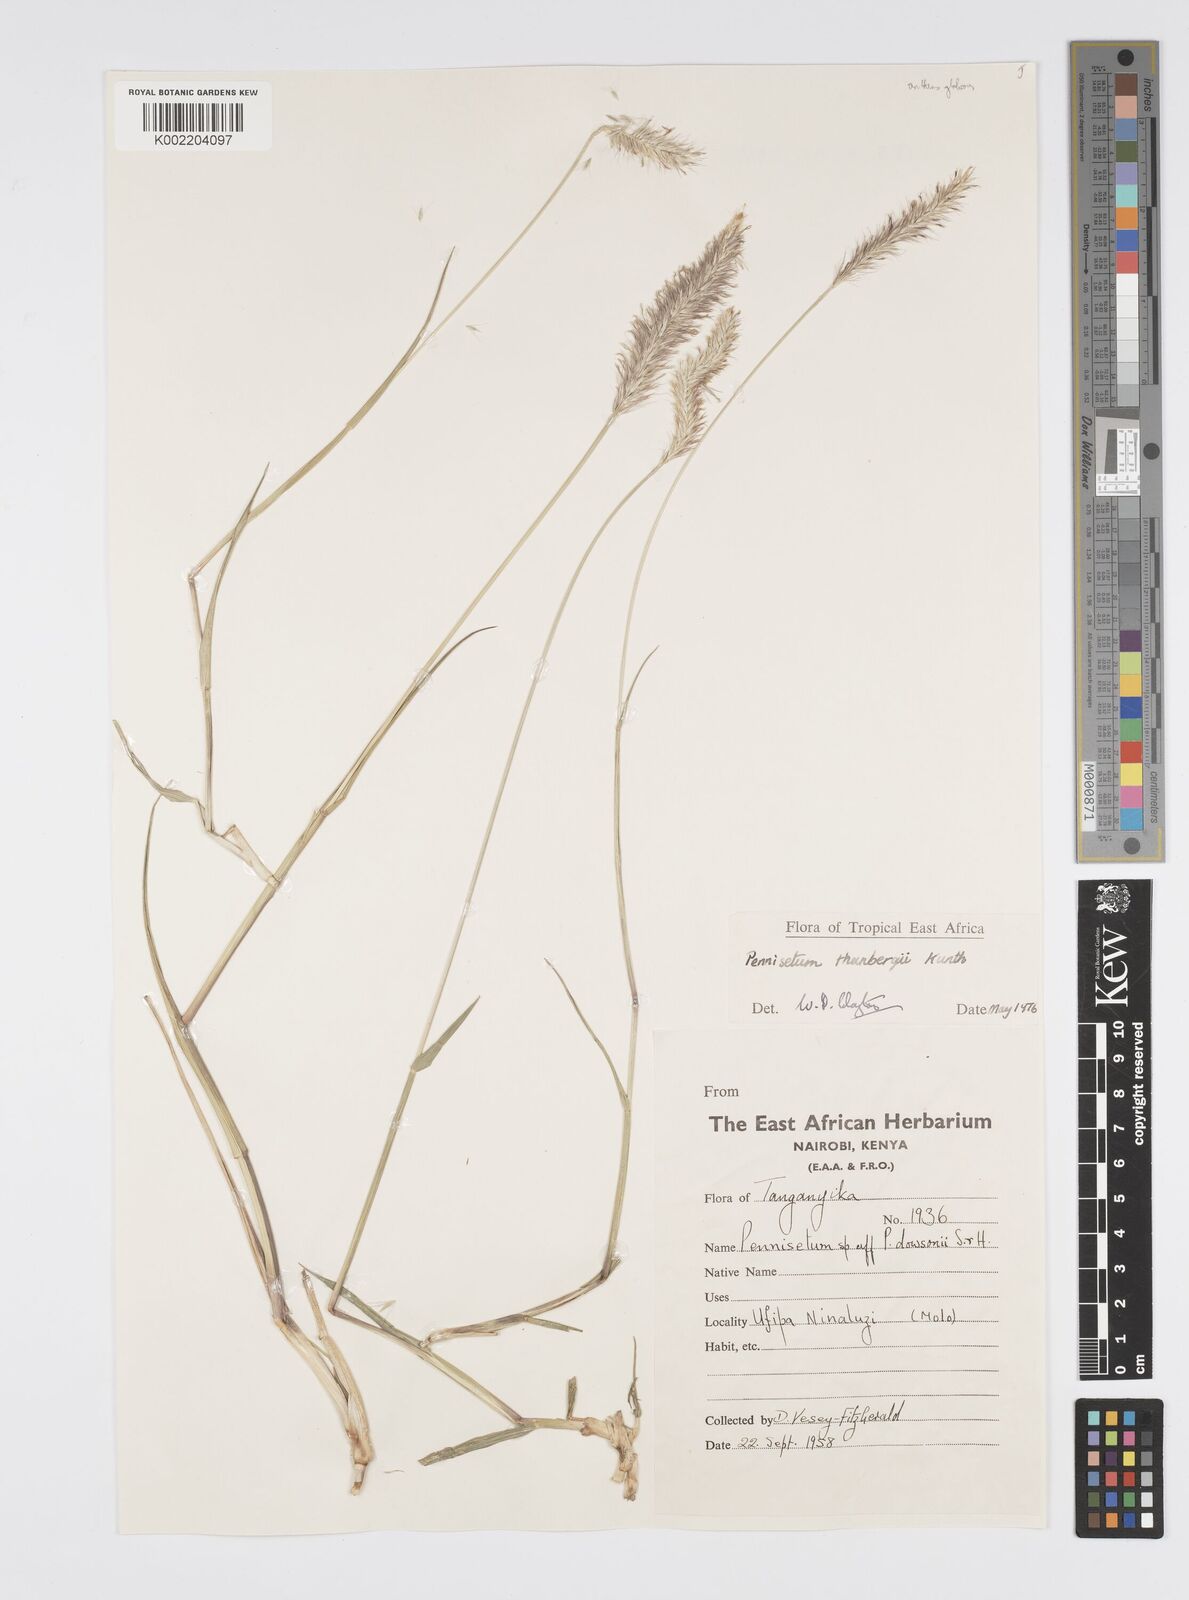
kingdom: Plantae
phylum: Tracheophyta
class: Liliopsida
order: Poales
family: Poaceae
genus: Cenchrus
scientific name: Cenchrus geniculatus
